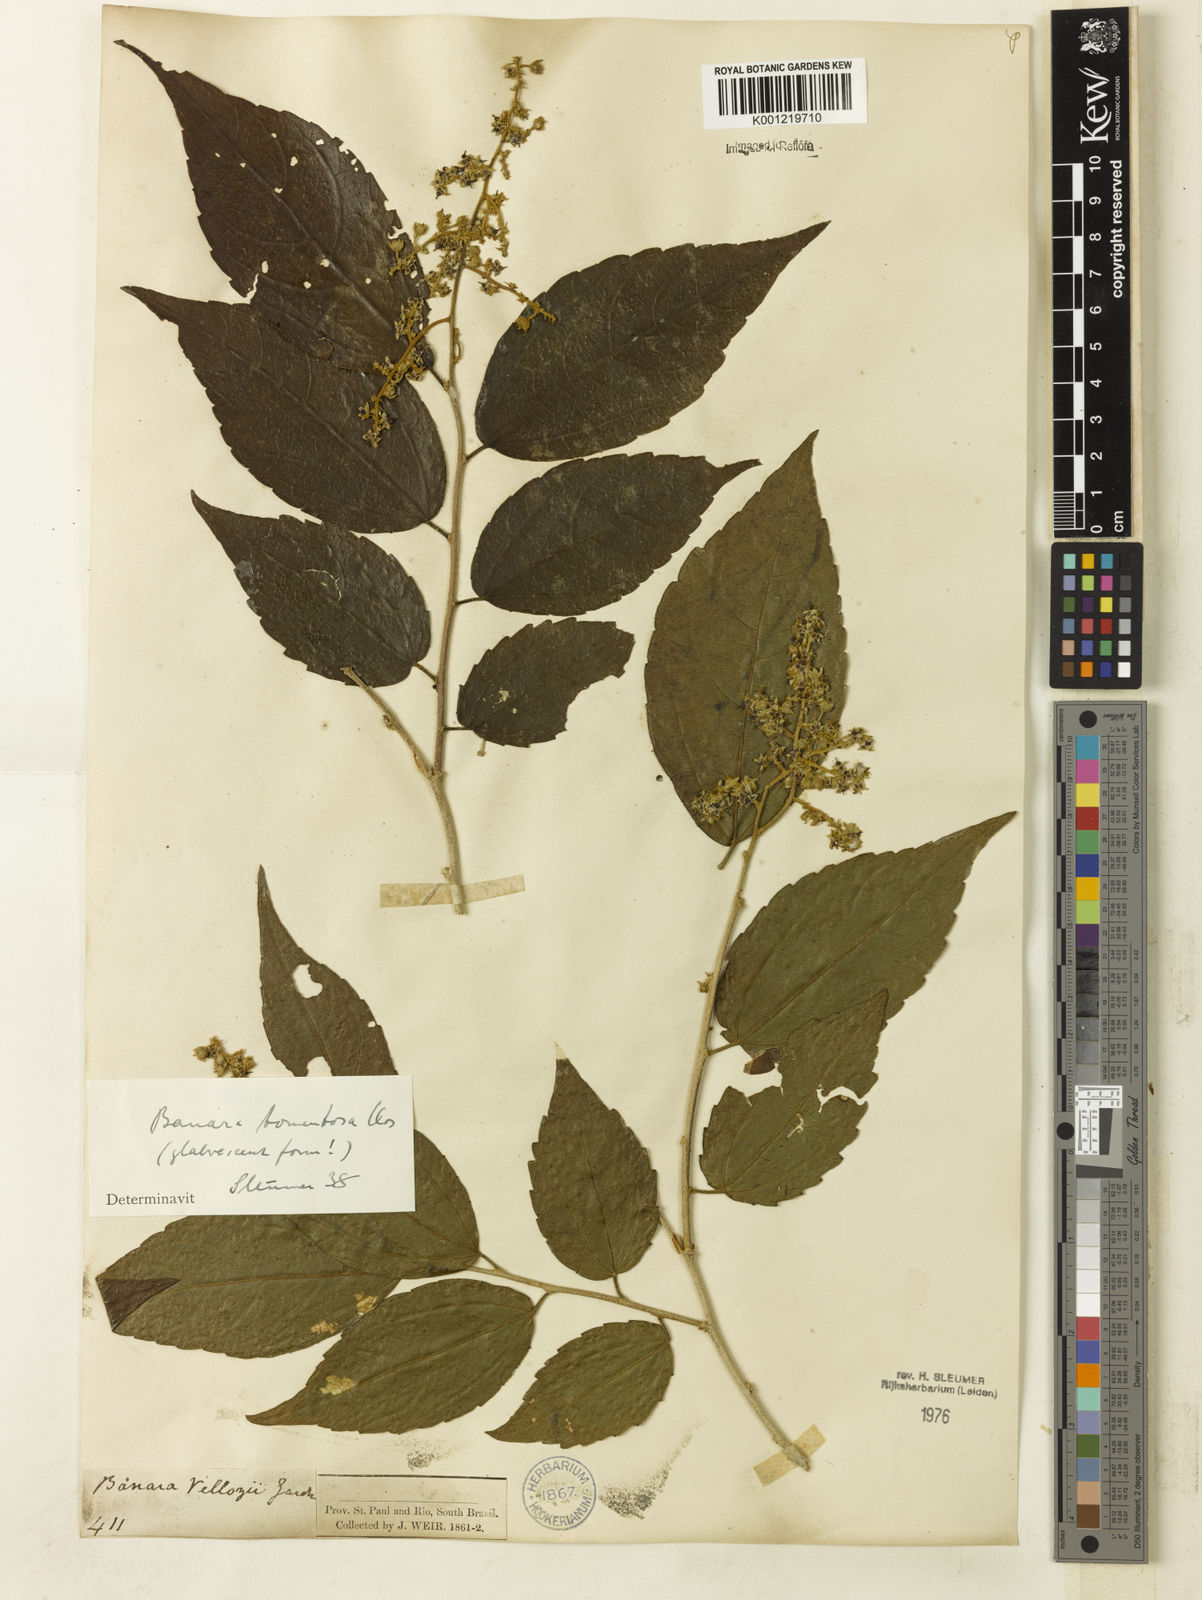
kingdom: Plantae
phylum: Tracheophyta
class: Magnoliopsida
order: Malpighiales
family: Salicaceae
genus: Banara
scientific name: Banara tomentosa
